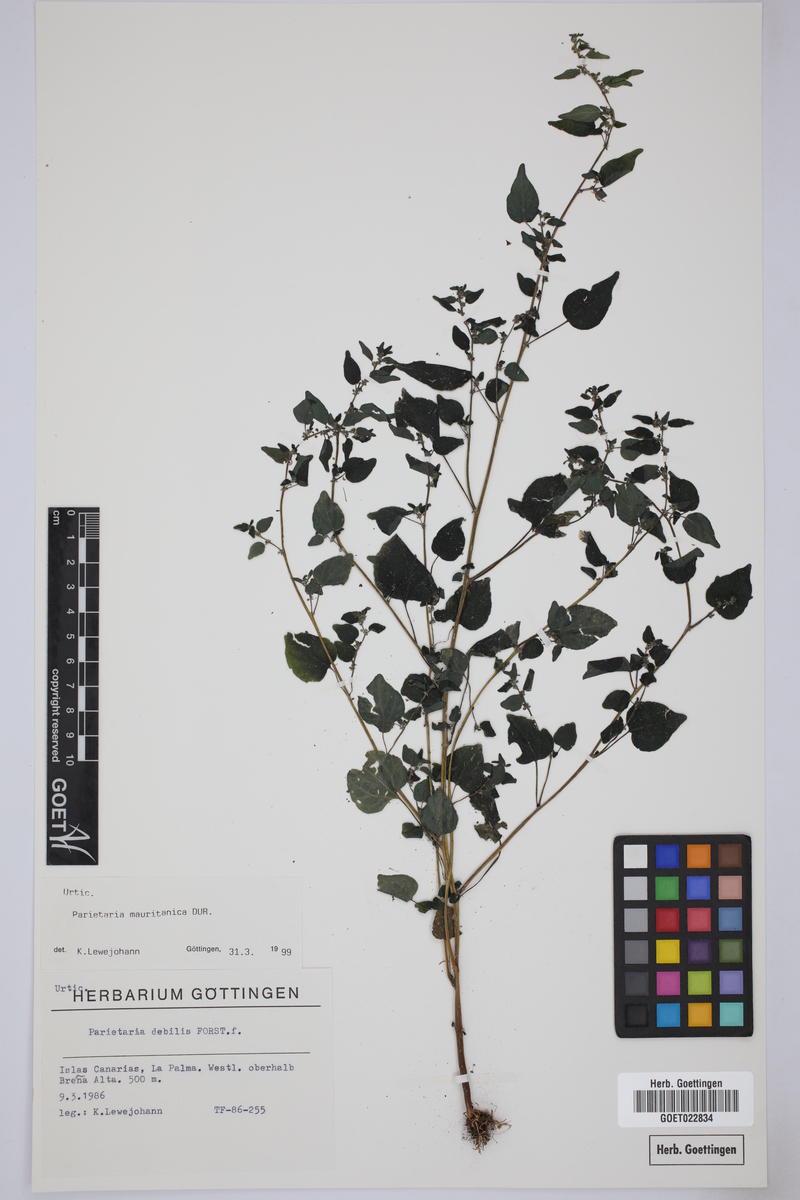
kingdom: Plantae
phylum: Tracheophyta
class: Magnoliopsida
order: Rosales
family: Urticaceae
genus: Parietaria
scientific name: Parietaria mauritanica
